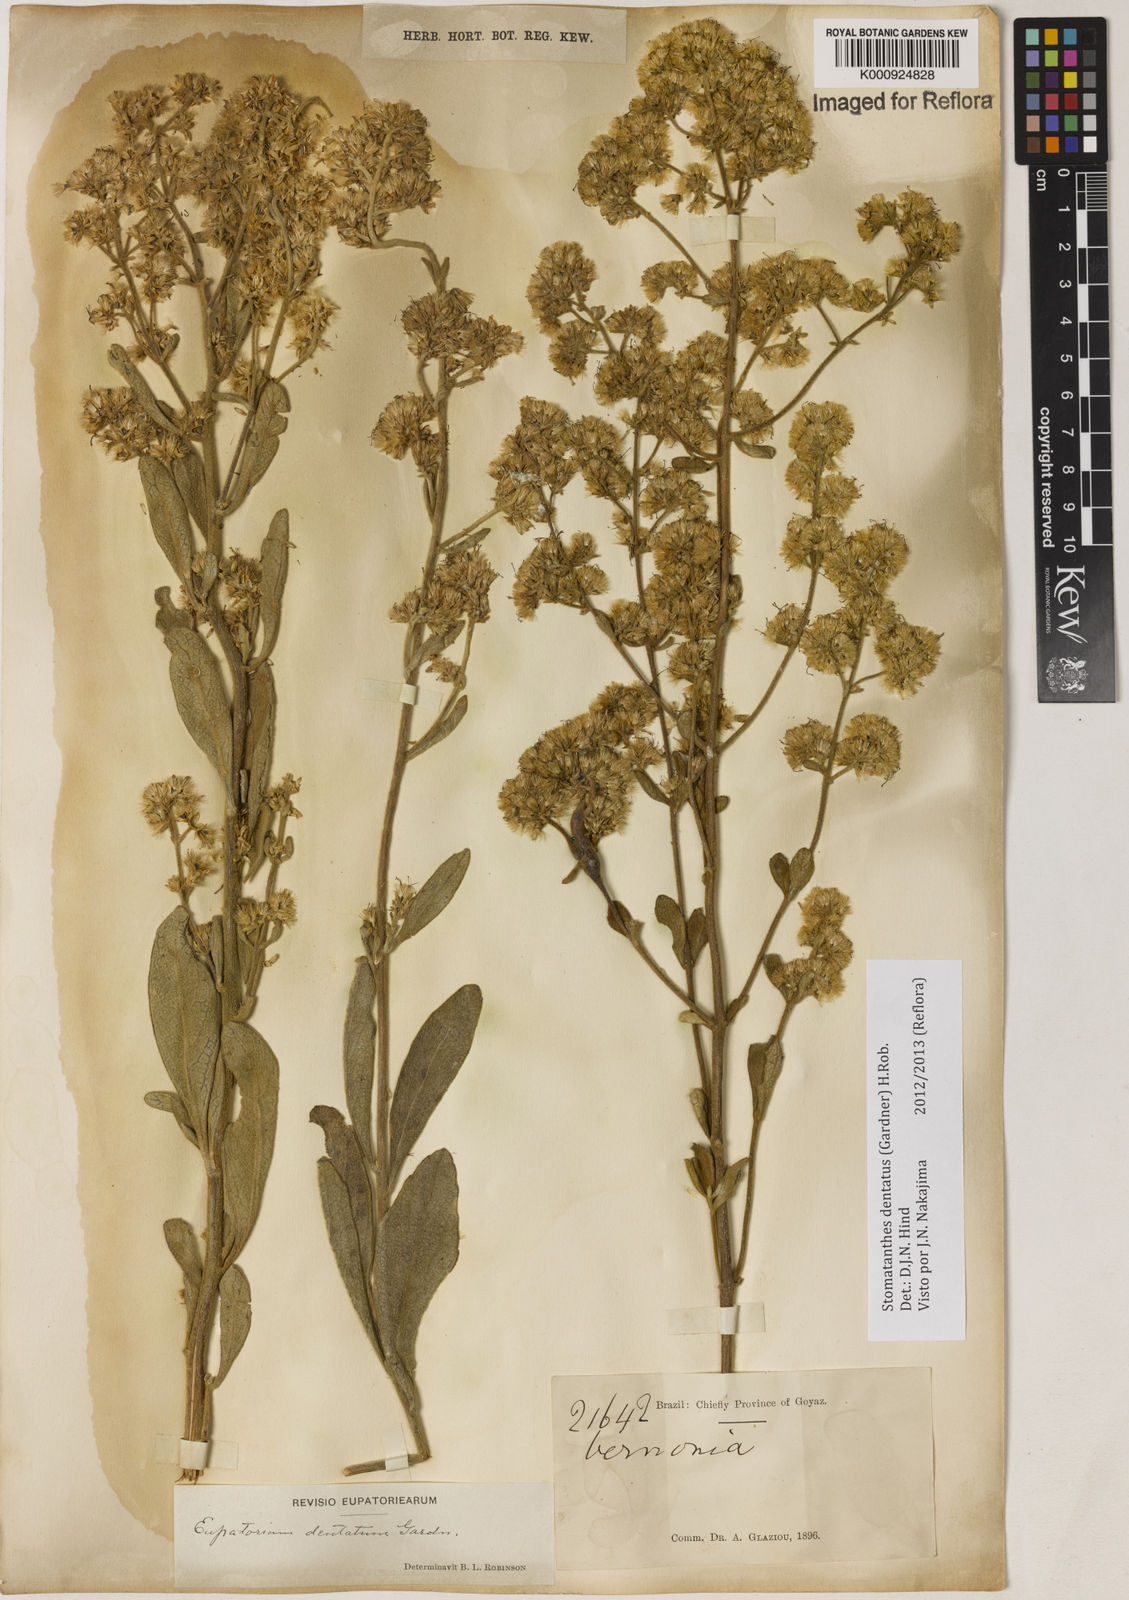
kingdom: Plantae
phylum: Tracheophyta
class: Magnoliopsida
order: Asterales
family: Asteraceae
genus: Stomatanthes
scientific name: Stomatanthes dentatus
